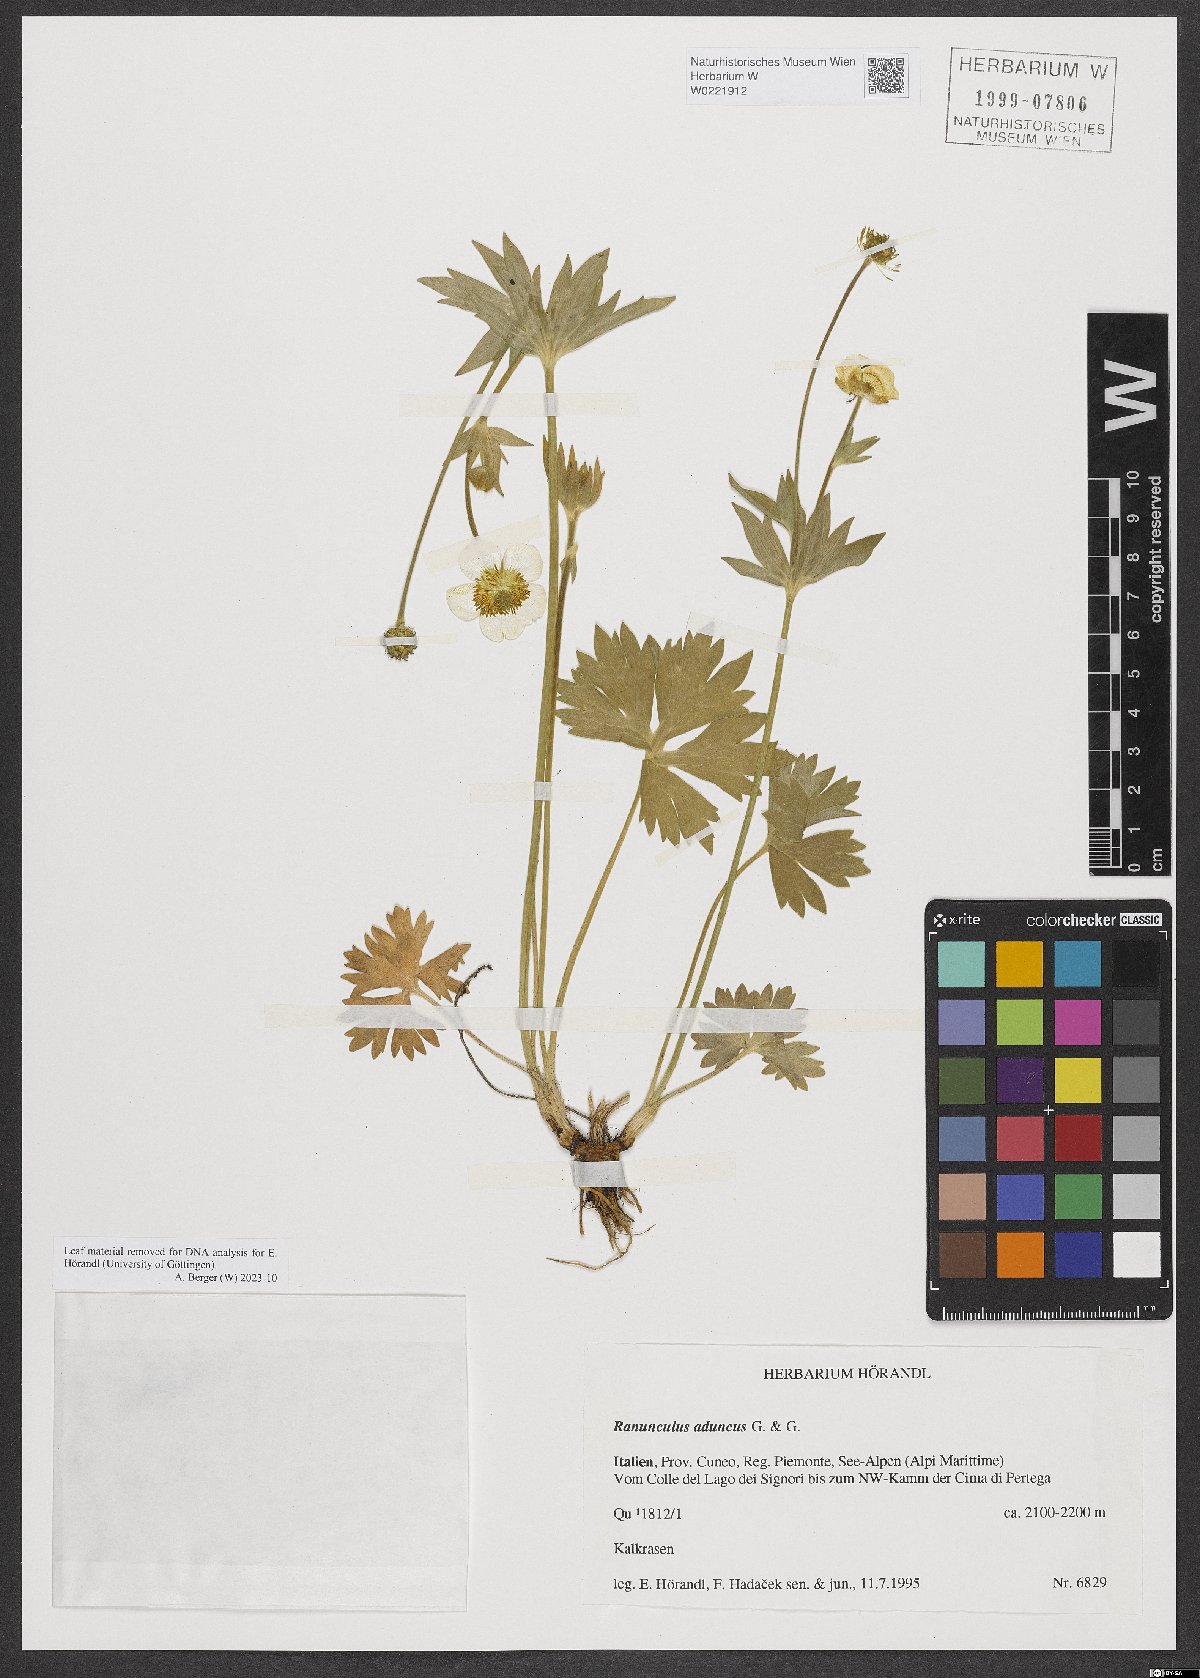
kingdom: Plantae
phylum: Tracheophyta
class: Magnoliopsida
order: Ranunculales
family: Ranunculaceae
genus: Ranunculus
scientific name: Ranunculus aduncus
